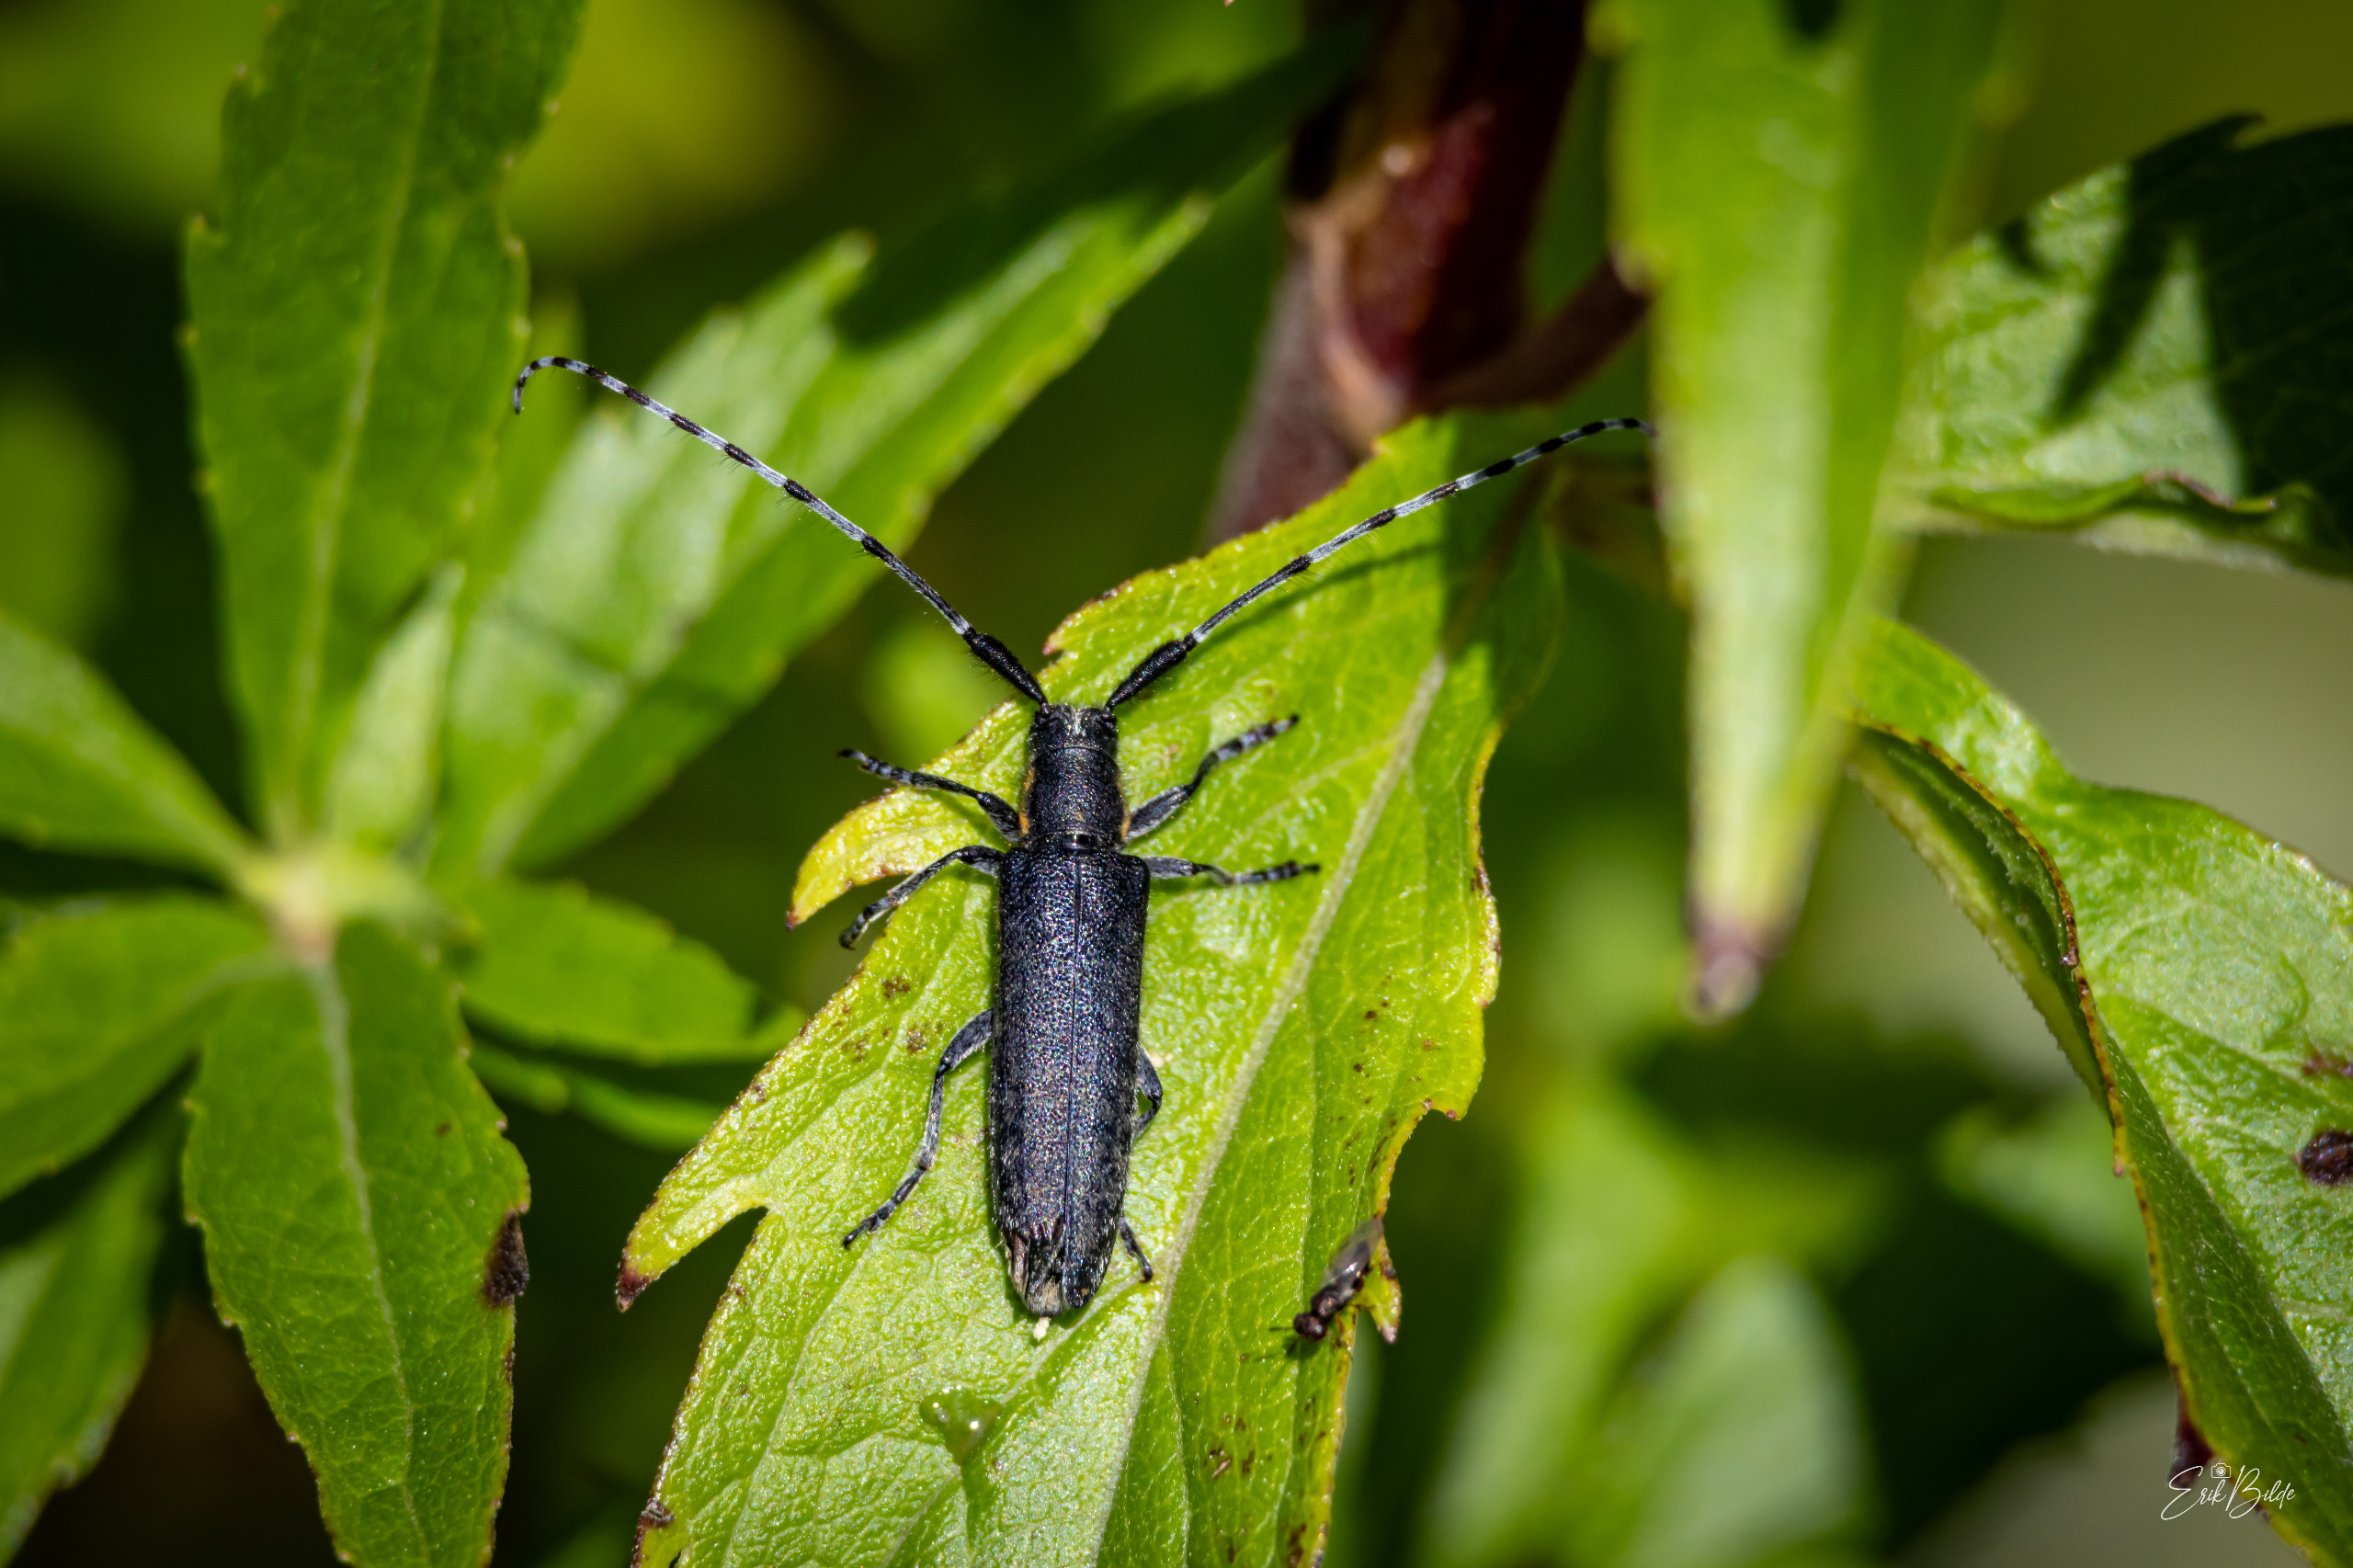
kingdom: Animalia
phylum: Arthropoda
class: Insecta
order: Coleoptera
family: Cerambycidae
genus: Agapanthia
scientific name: Agapanthia villosoviridescens
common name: Tidselbuk
